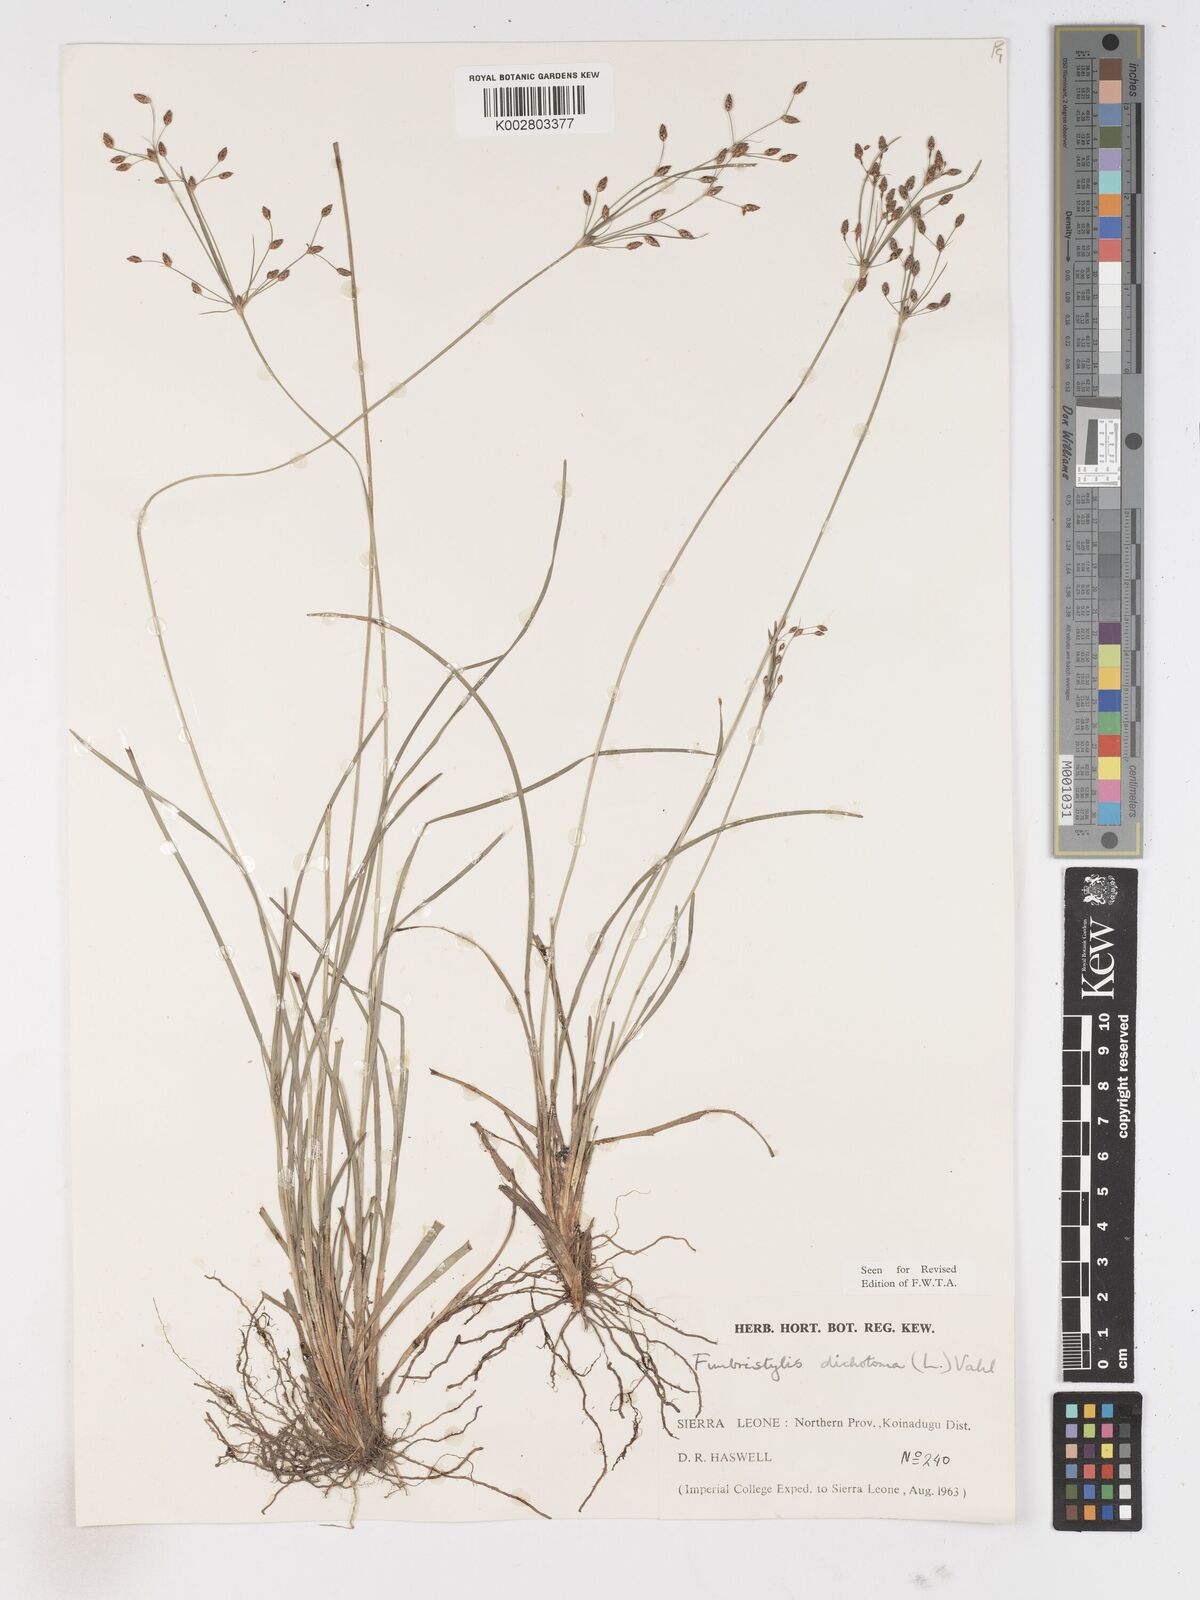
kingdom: Plantae
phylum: Tracheophyta
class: Liliopsida
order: Poales
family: Cyperaceae
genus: Fimbristylis
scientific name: Fimbristylis dichotoma
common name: Forked fimbry
